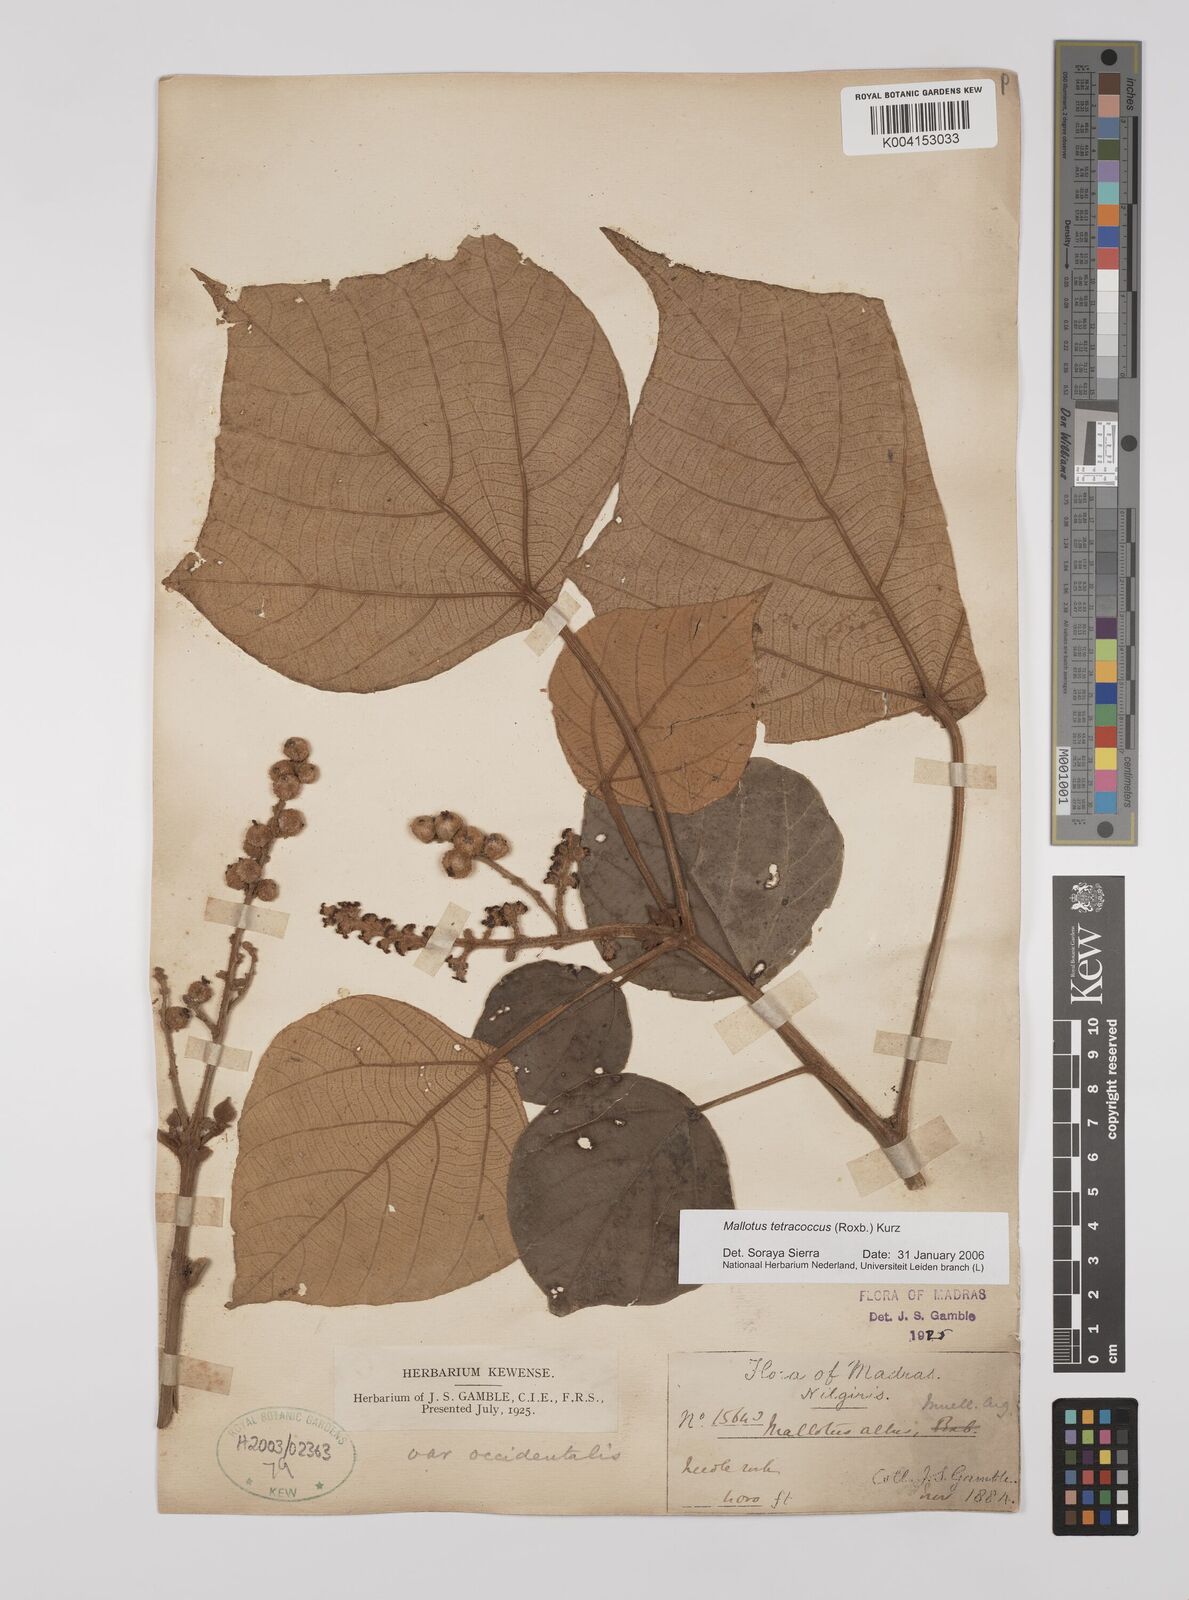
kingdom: Plantae
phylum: Tracheophyta
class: Magnoliopsida
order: Malpighiales
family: Euphorbiaceae
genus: Mallotus
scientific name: Mallotus tetracoccus
